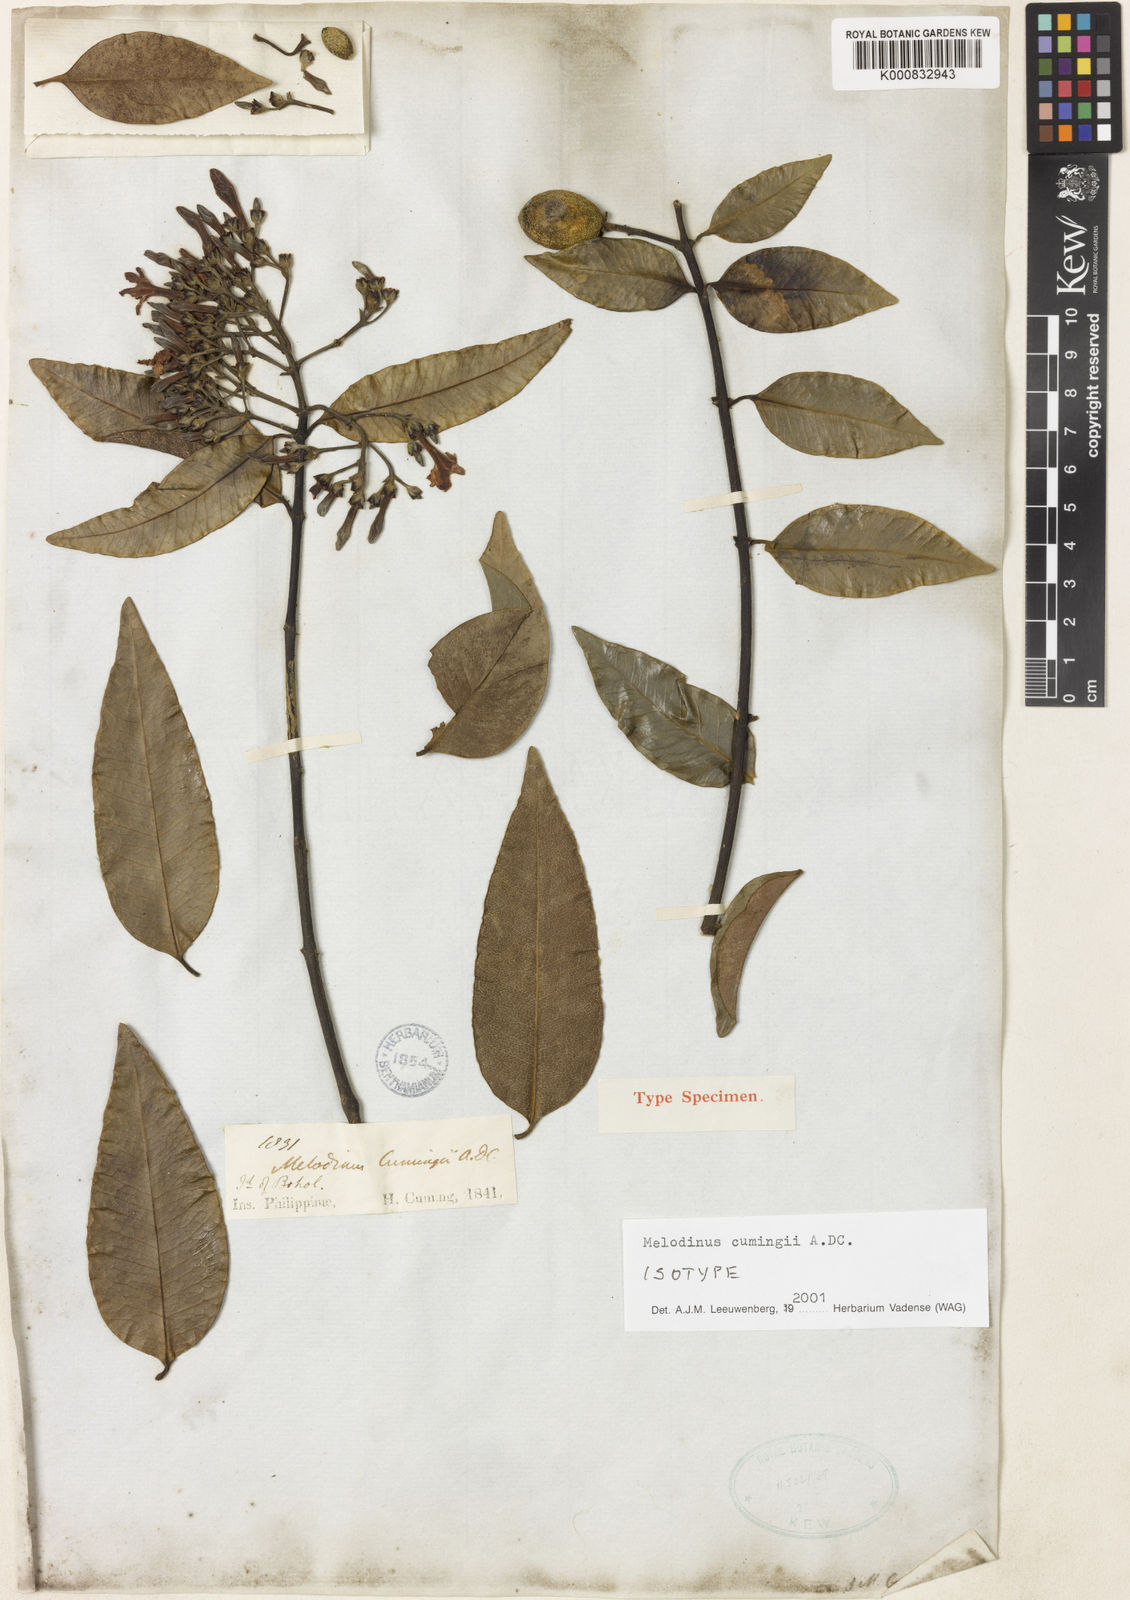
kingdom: Plantae
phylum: Tracheophyta
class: Magnoliopsida
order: Gentianales
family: Apocynaceae
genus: Melodinus
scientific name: Melodinus cumingii
